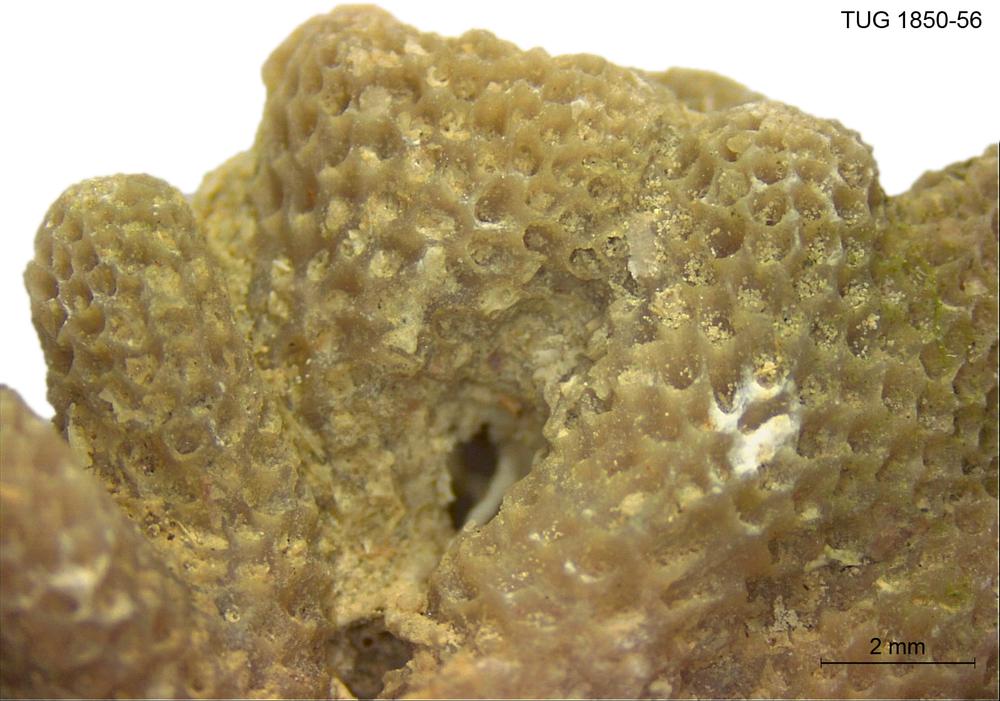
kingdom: Animalia
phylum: Cnidaria
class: Anthozoa
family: Coenitidae
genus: Coenites
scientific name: Coenites juniperinus
